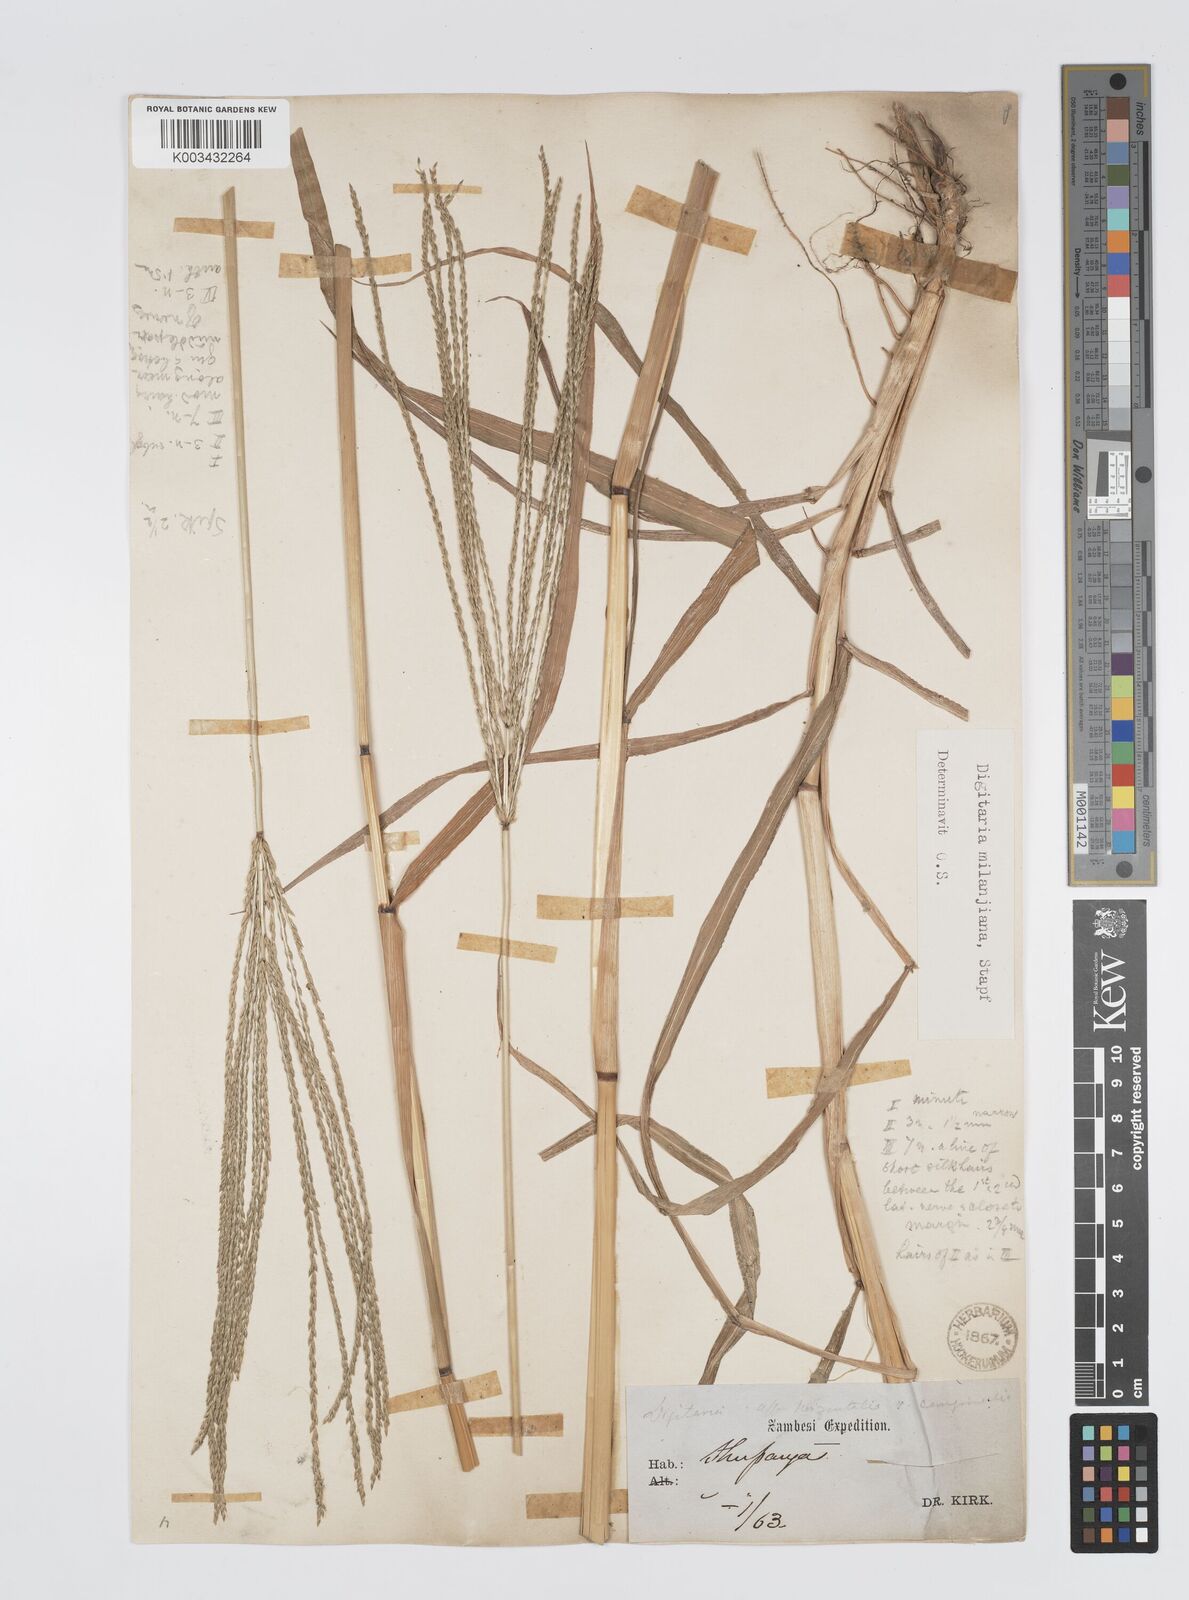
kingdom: Plantae
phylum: Tracheophyta
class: Liliopsida
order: Poales
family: Poaceae
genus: Digitaria
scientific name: Digitaria milanjiana
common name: Madagascar crabgrass
